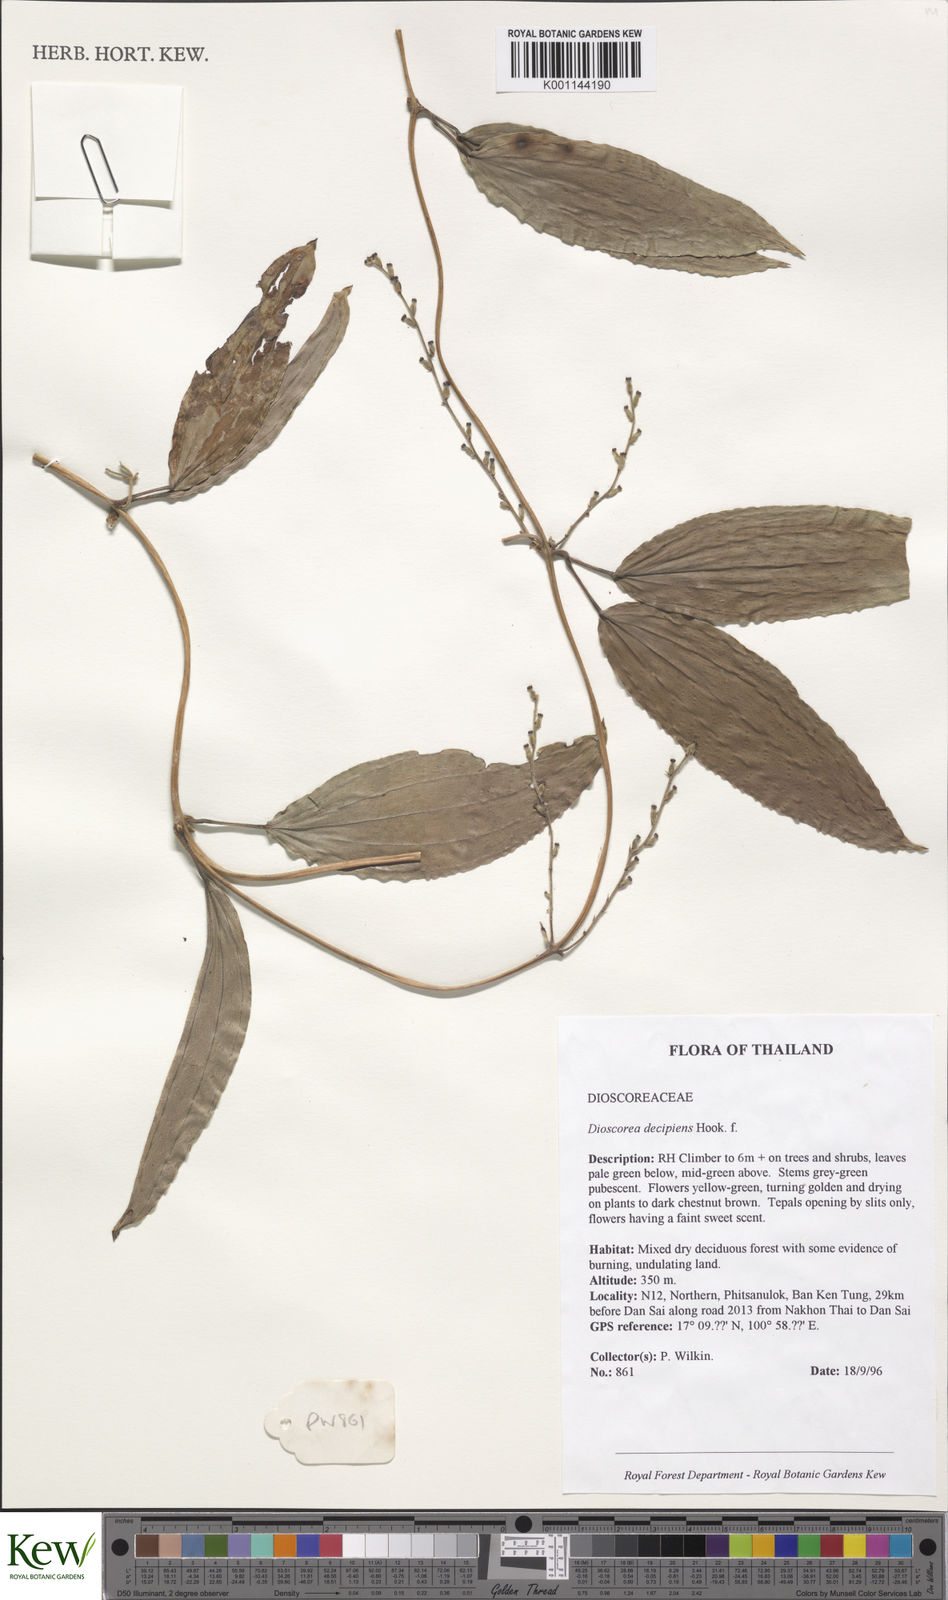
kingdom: Plantae
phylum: Tracheophyta
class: Liliopsida
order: Dioscoreales
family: Dioscoreaceae
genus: Dioscorea
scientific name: Dioscorea decipiens
